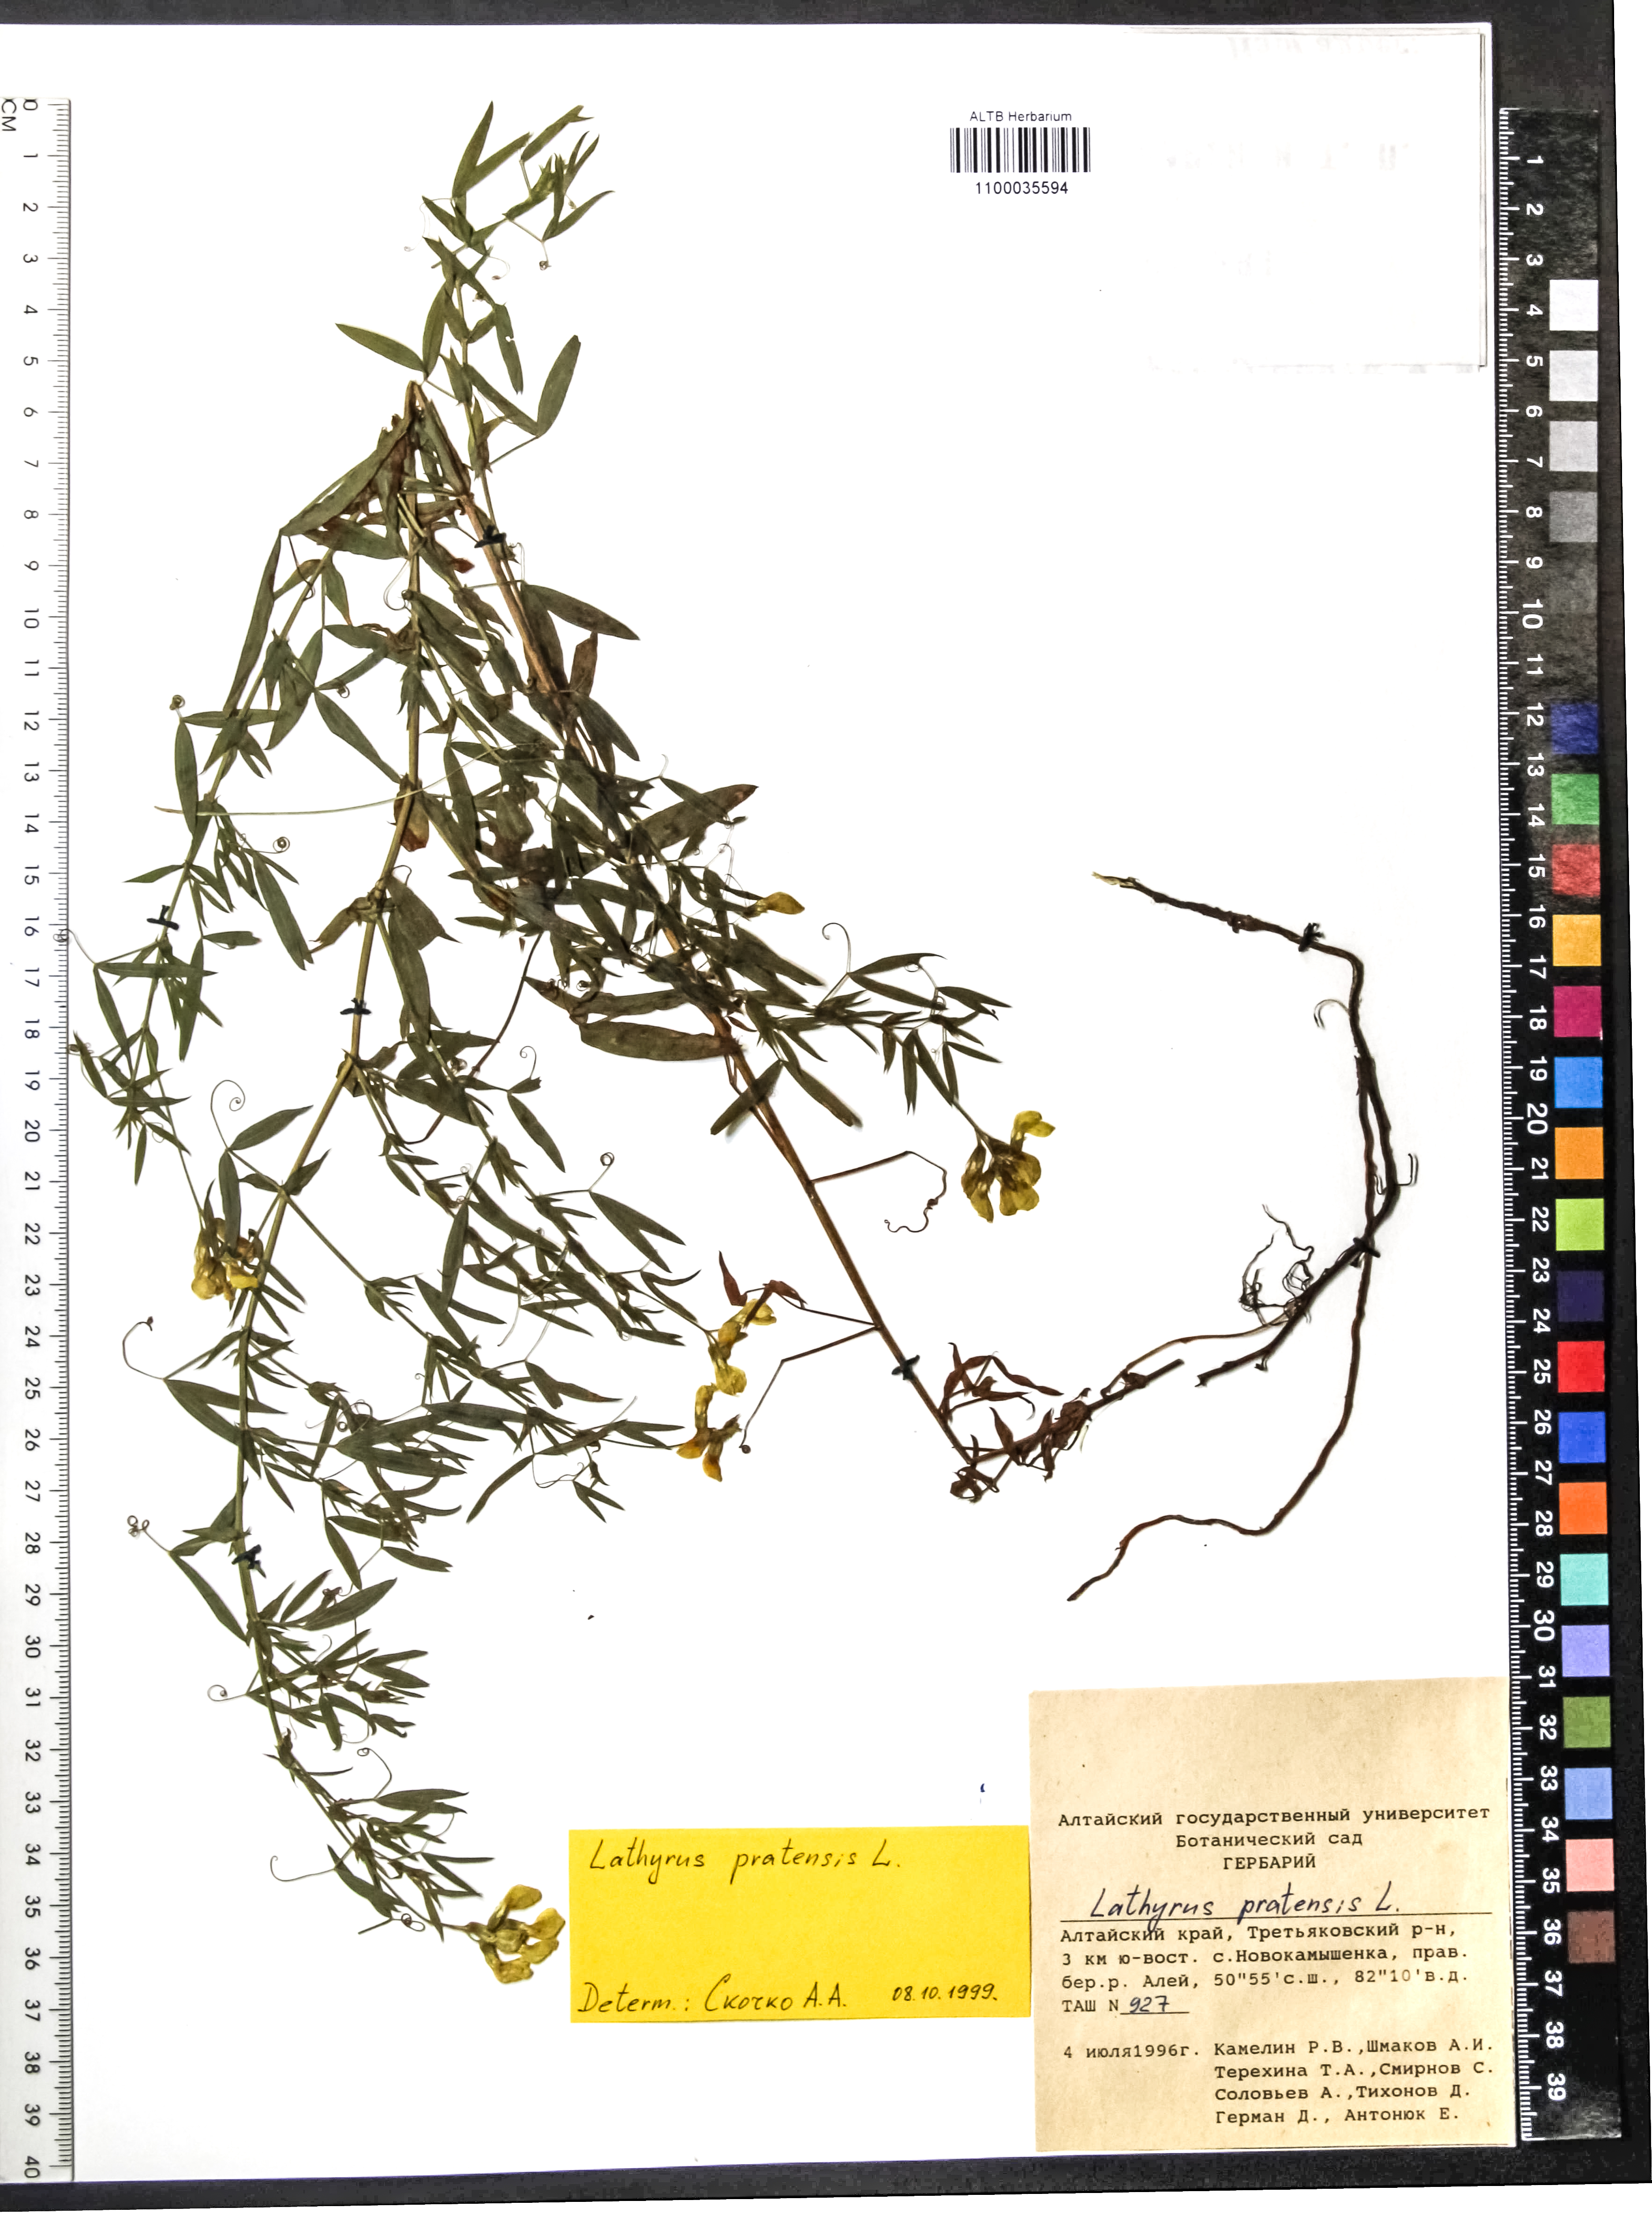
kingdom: Plantae
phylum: Tracheophyta
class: Magnoliopsida
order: Fabales
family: Fabaceae
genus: Lathyrus
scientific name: Lathyrus pratensis
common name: Meadow vetchling
